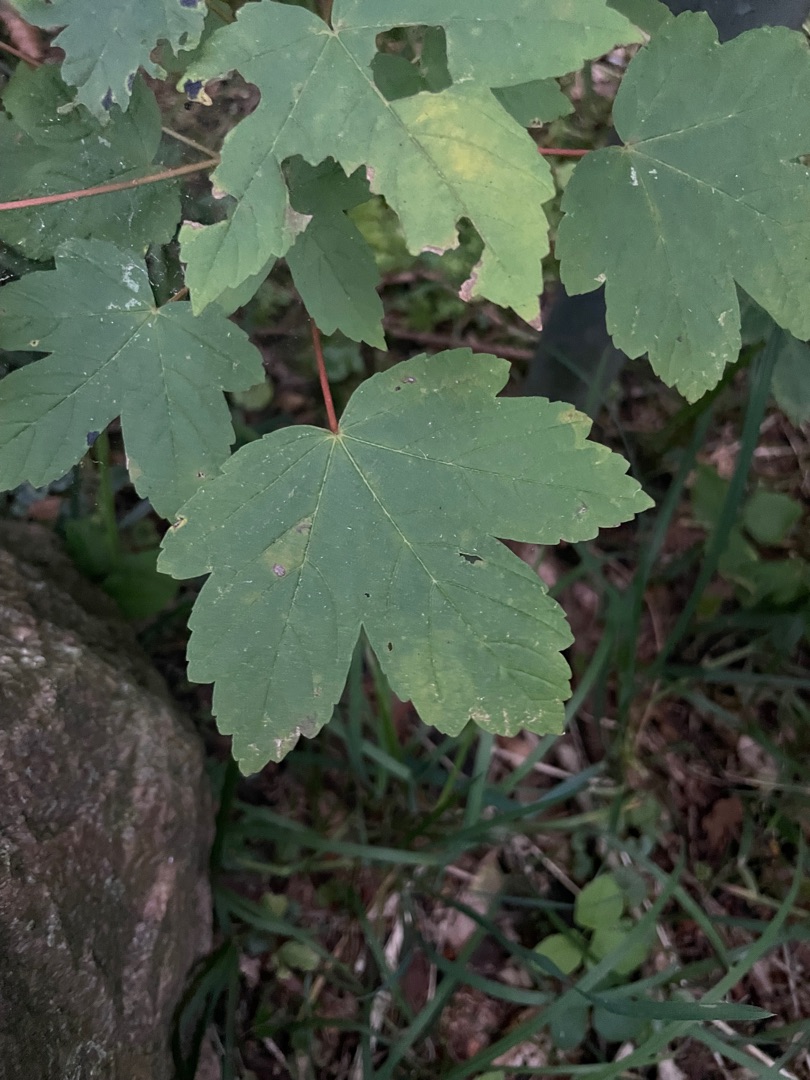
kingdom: Plantae
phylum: Tracheophyta
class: Magnoliopsida
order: Sapindales
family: Sapindaceae
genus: Acer
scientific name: Acer pseudoplatanus
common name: Ahorn
